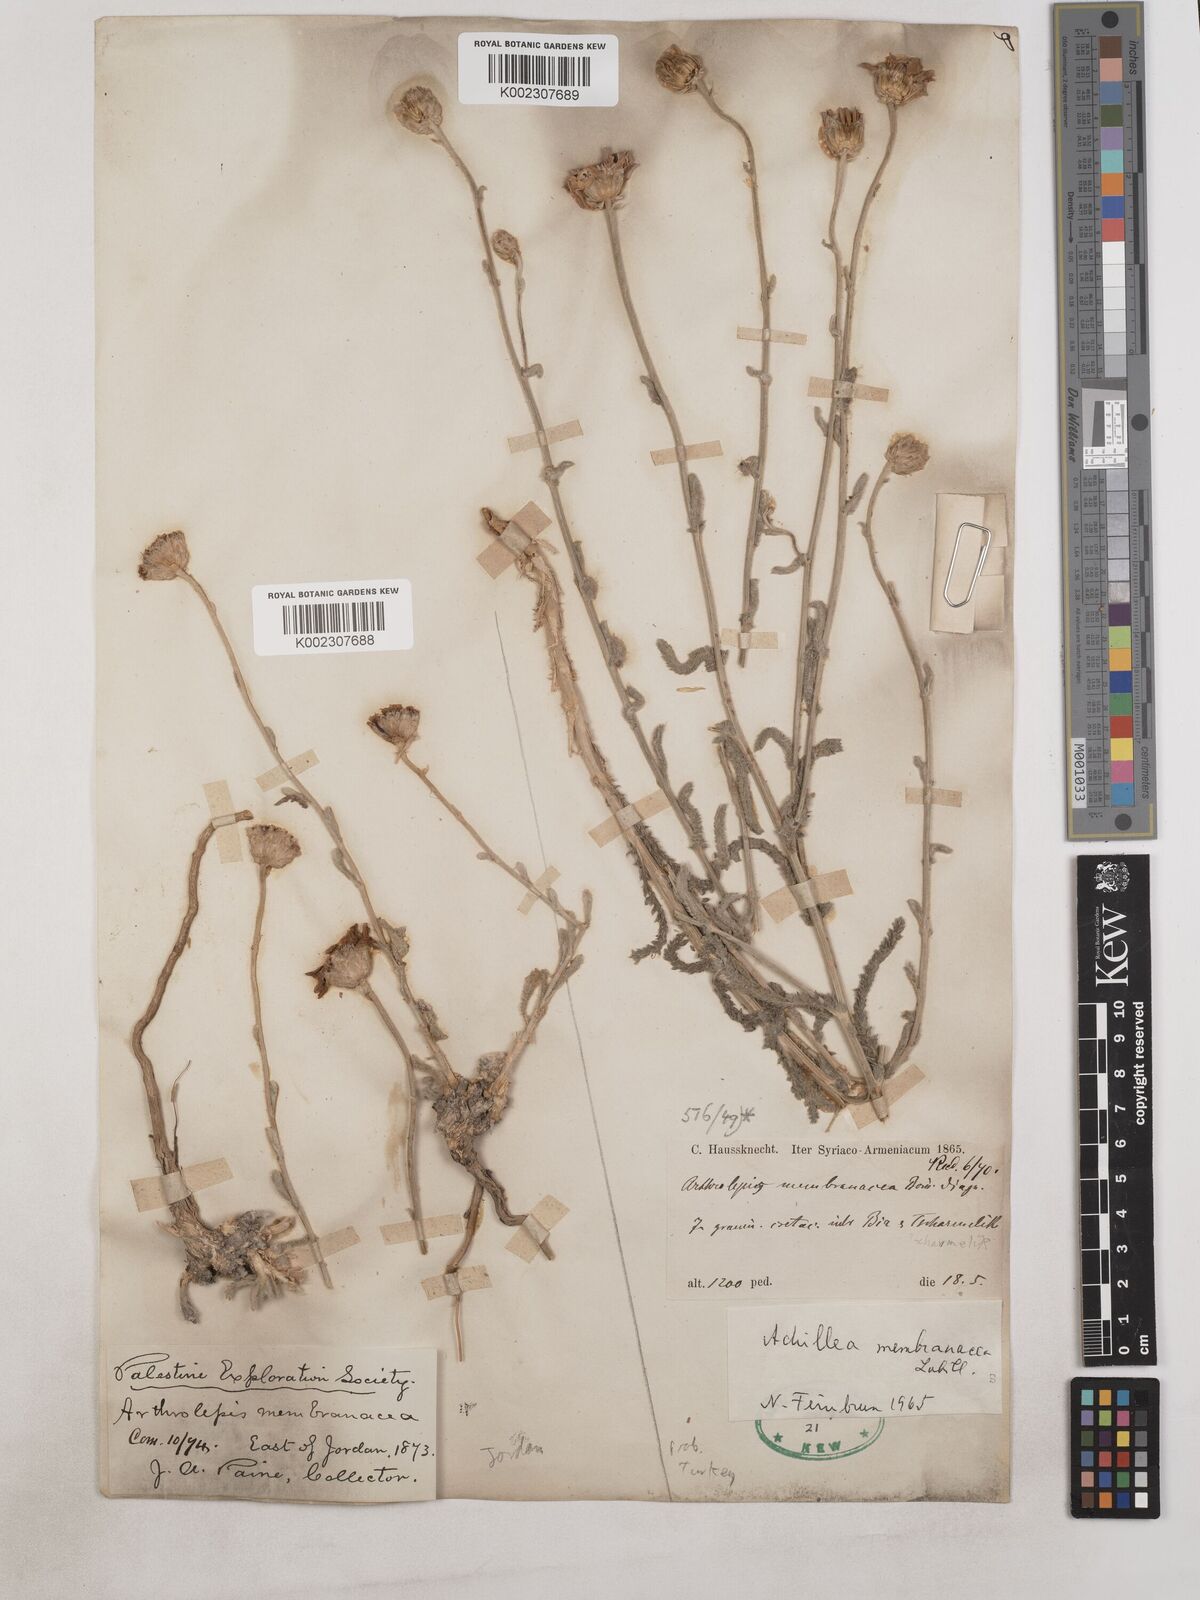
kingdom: Plantae
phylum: Tracheophyta
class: Magnoliopsida
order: Asterales
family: Asteraceae
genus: Achillea
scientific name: Achillea membranacea
